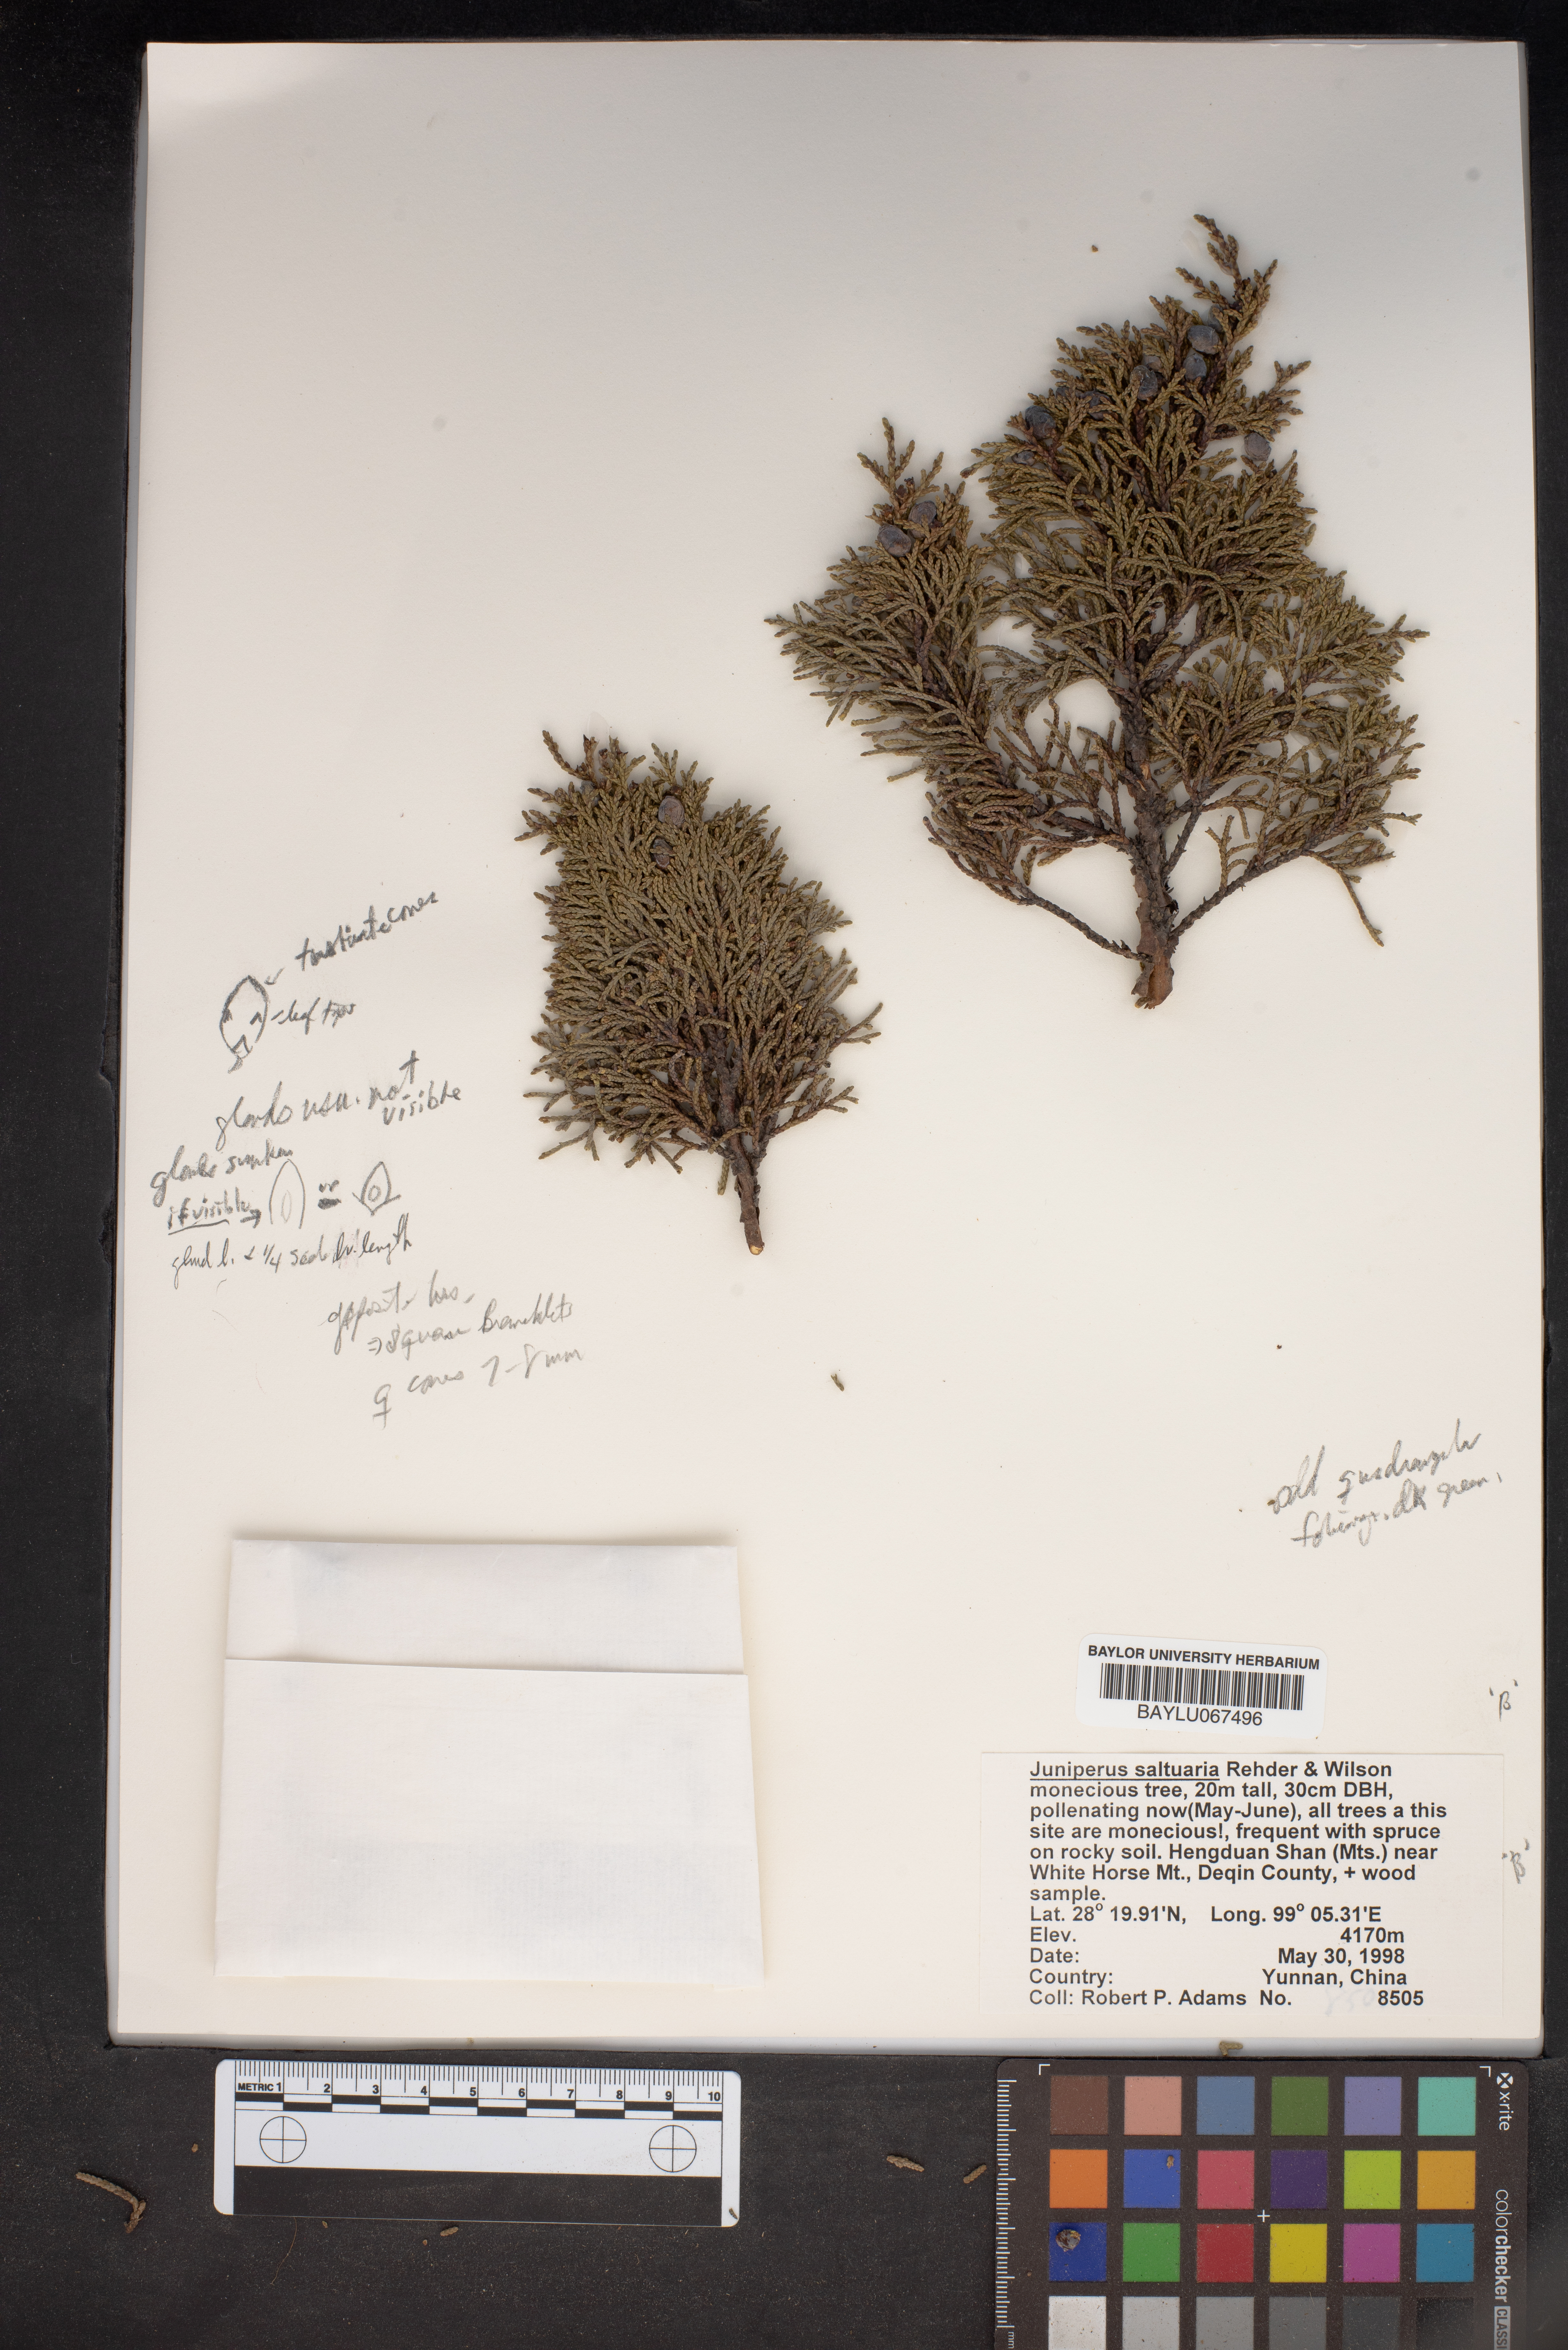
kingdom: Plantae
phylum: Tracheophyta
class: Pinopsida
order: Pinales
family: Cupressaceae
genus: Juniperus
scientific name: Juniperus saltuaria
